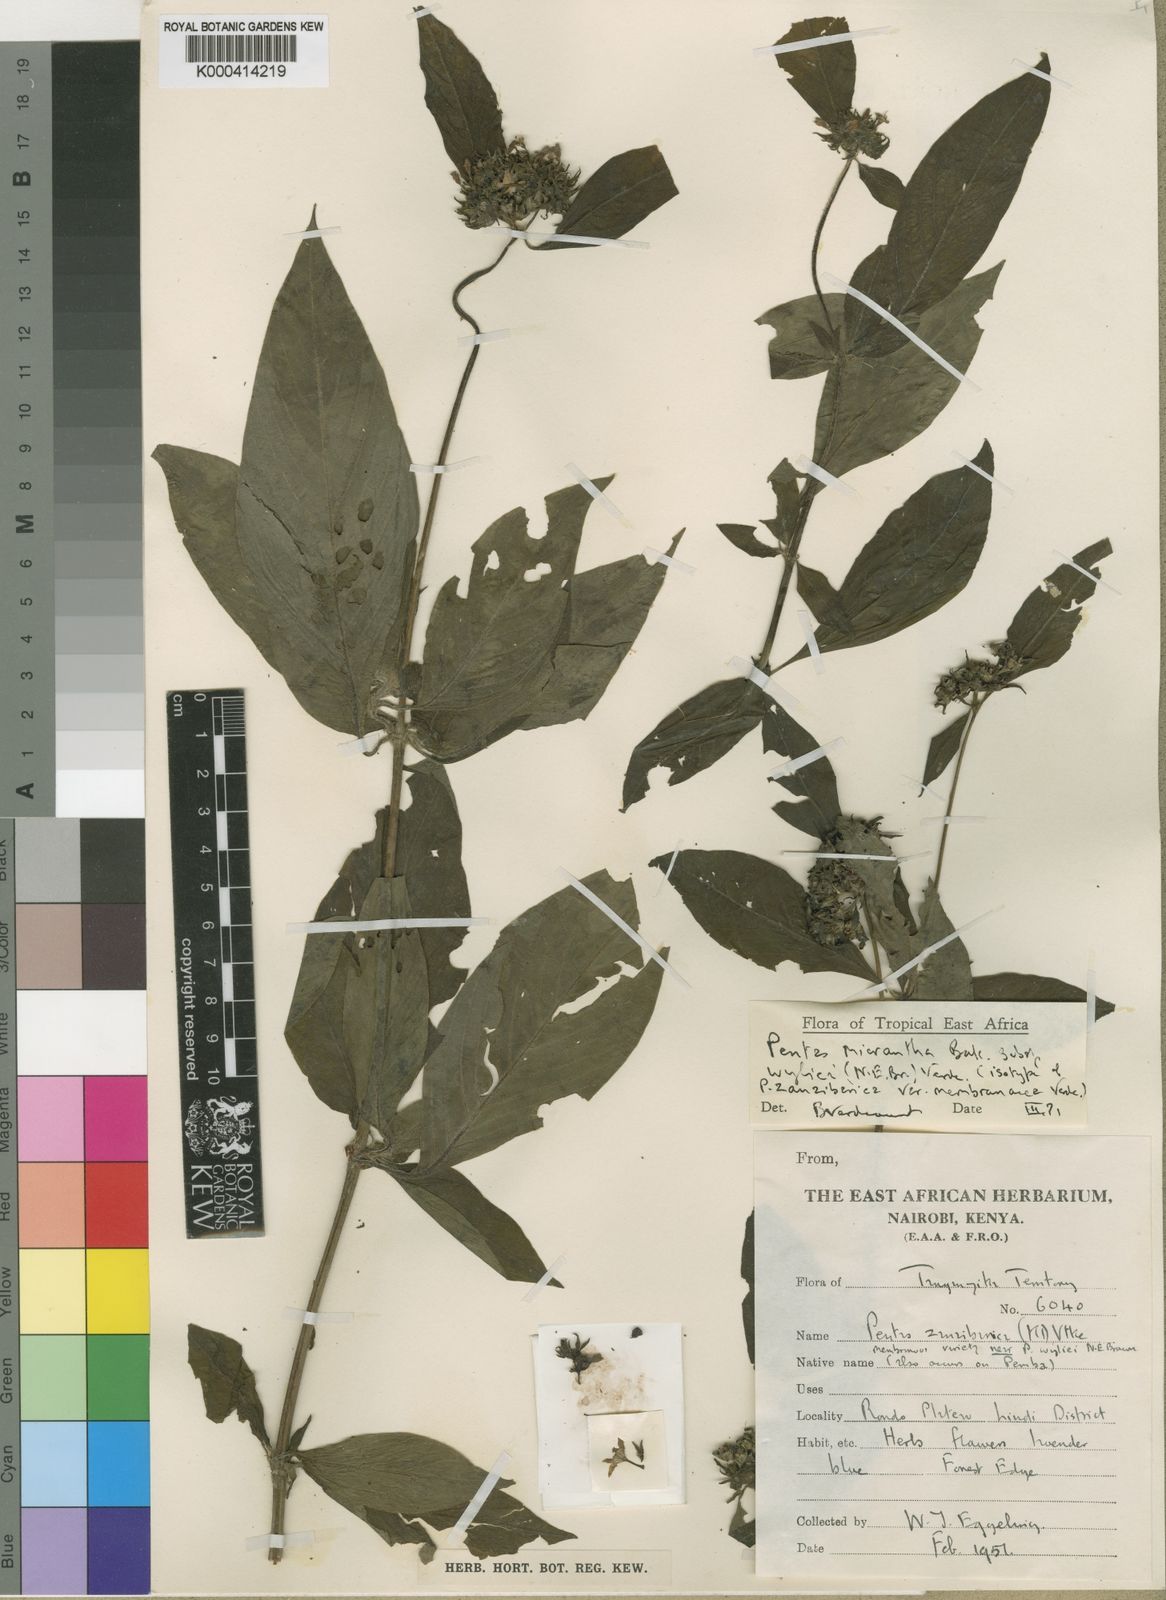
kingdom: Plantae
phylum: Tracheophyta
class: Magnoliopsida
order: Gentianales
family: Rubiaceae
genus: Pentas
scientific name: Pentas micrantha
